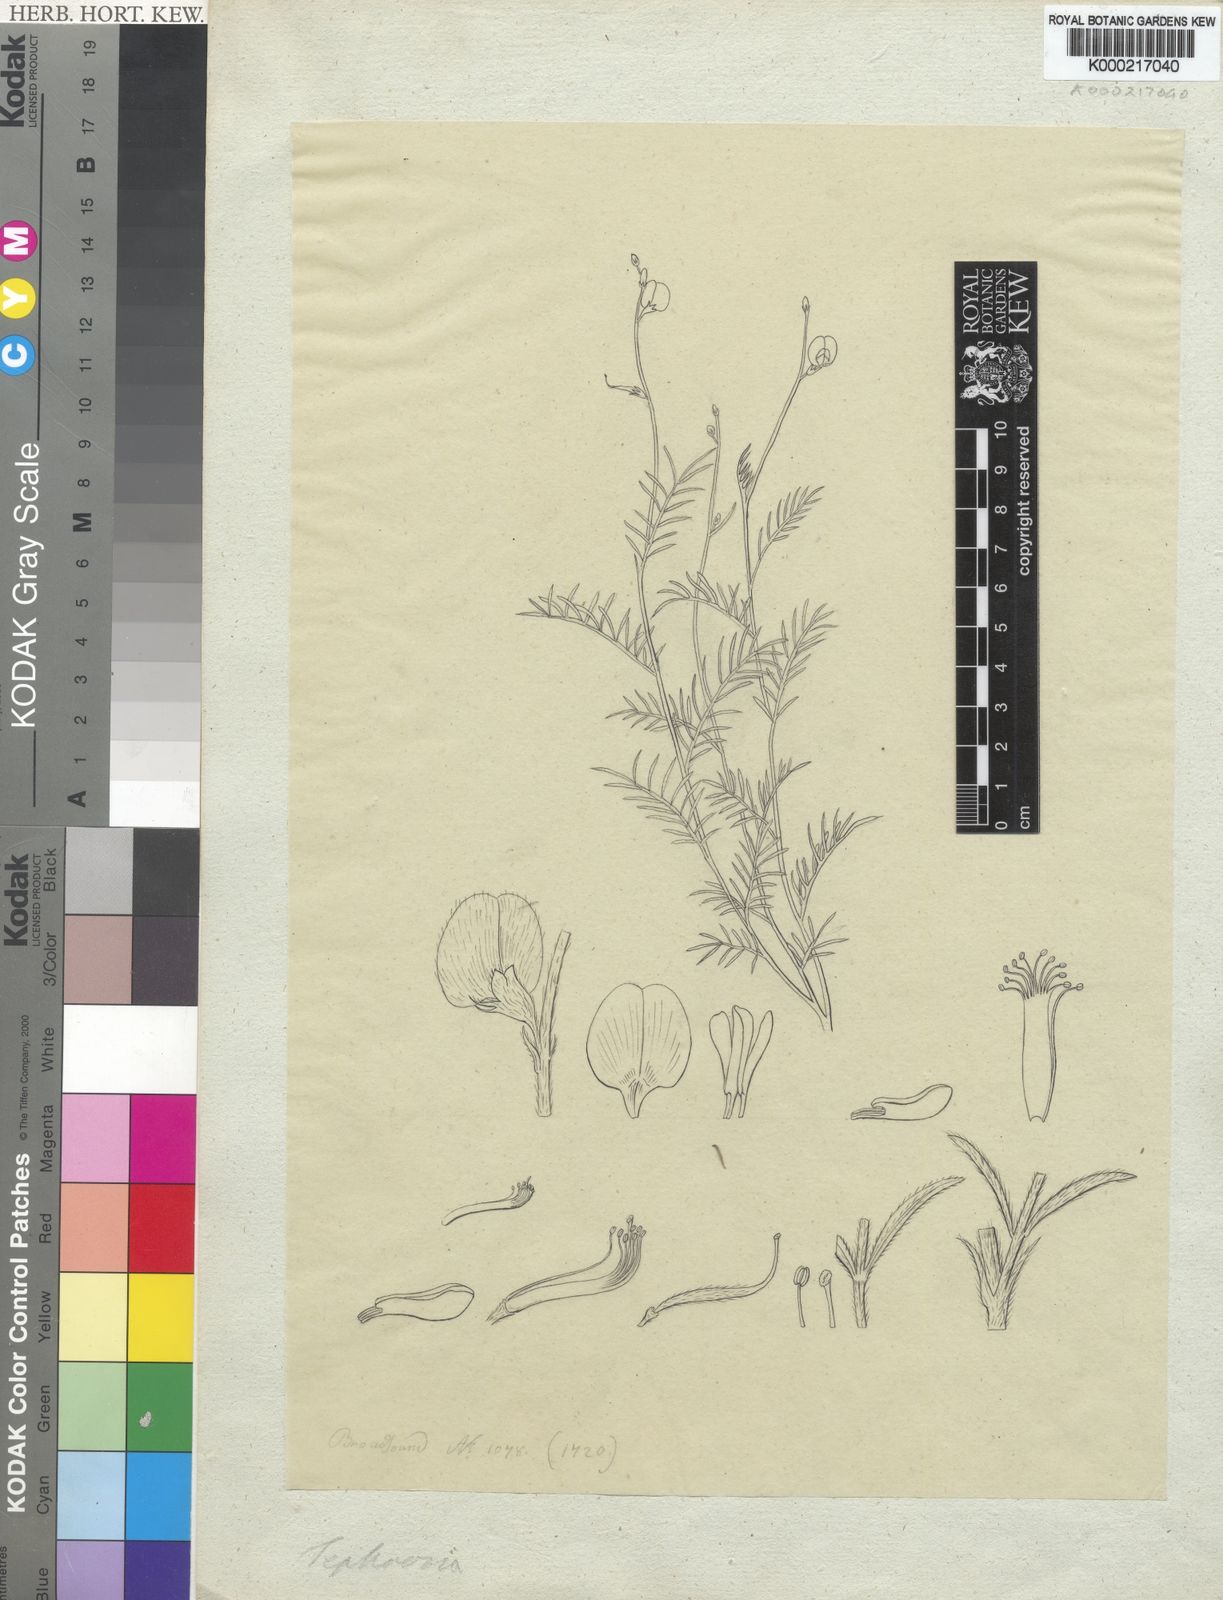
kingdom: Plantae
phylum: Tracheophyta
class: Magnoliopsida
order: Fabales
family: Fabaceae
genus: Tephrosia
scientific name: Tephrosia
